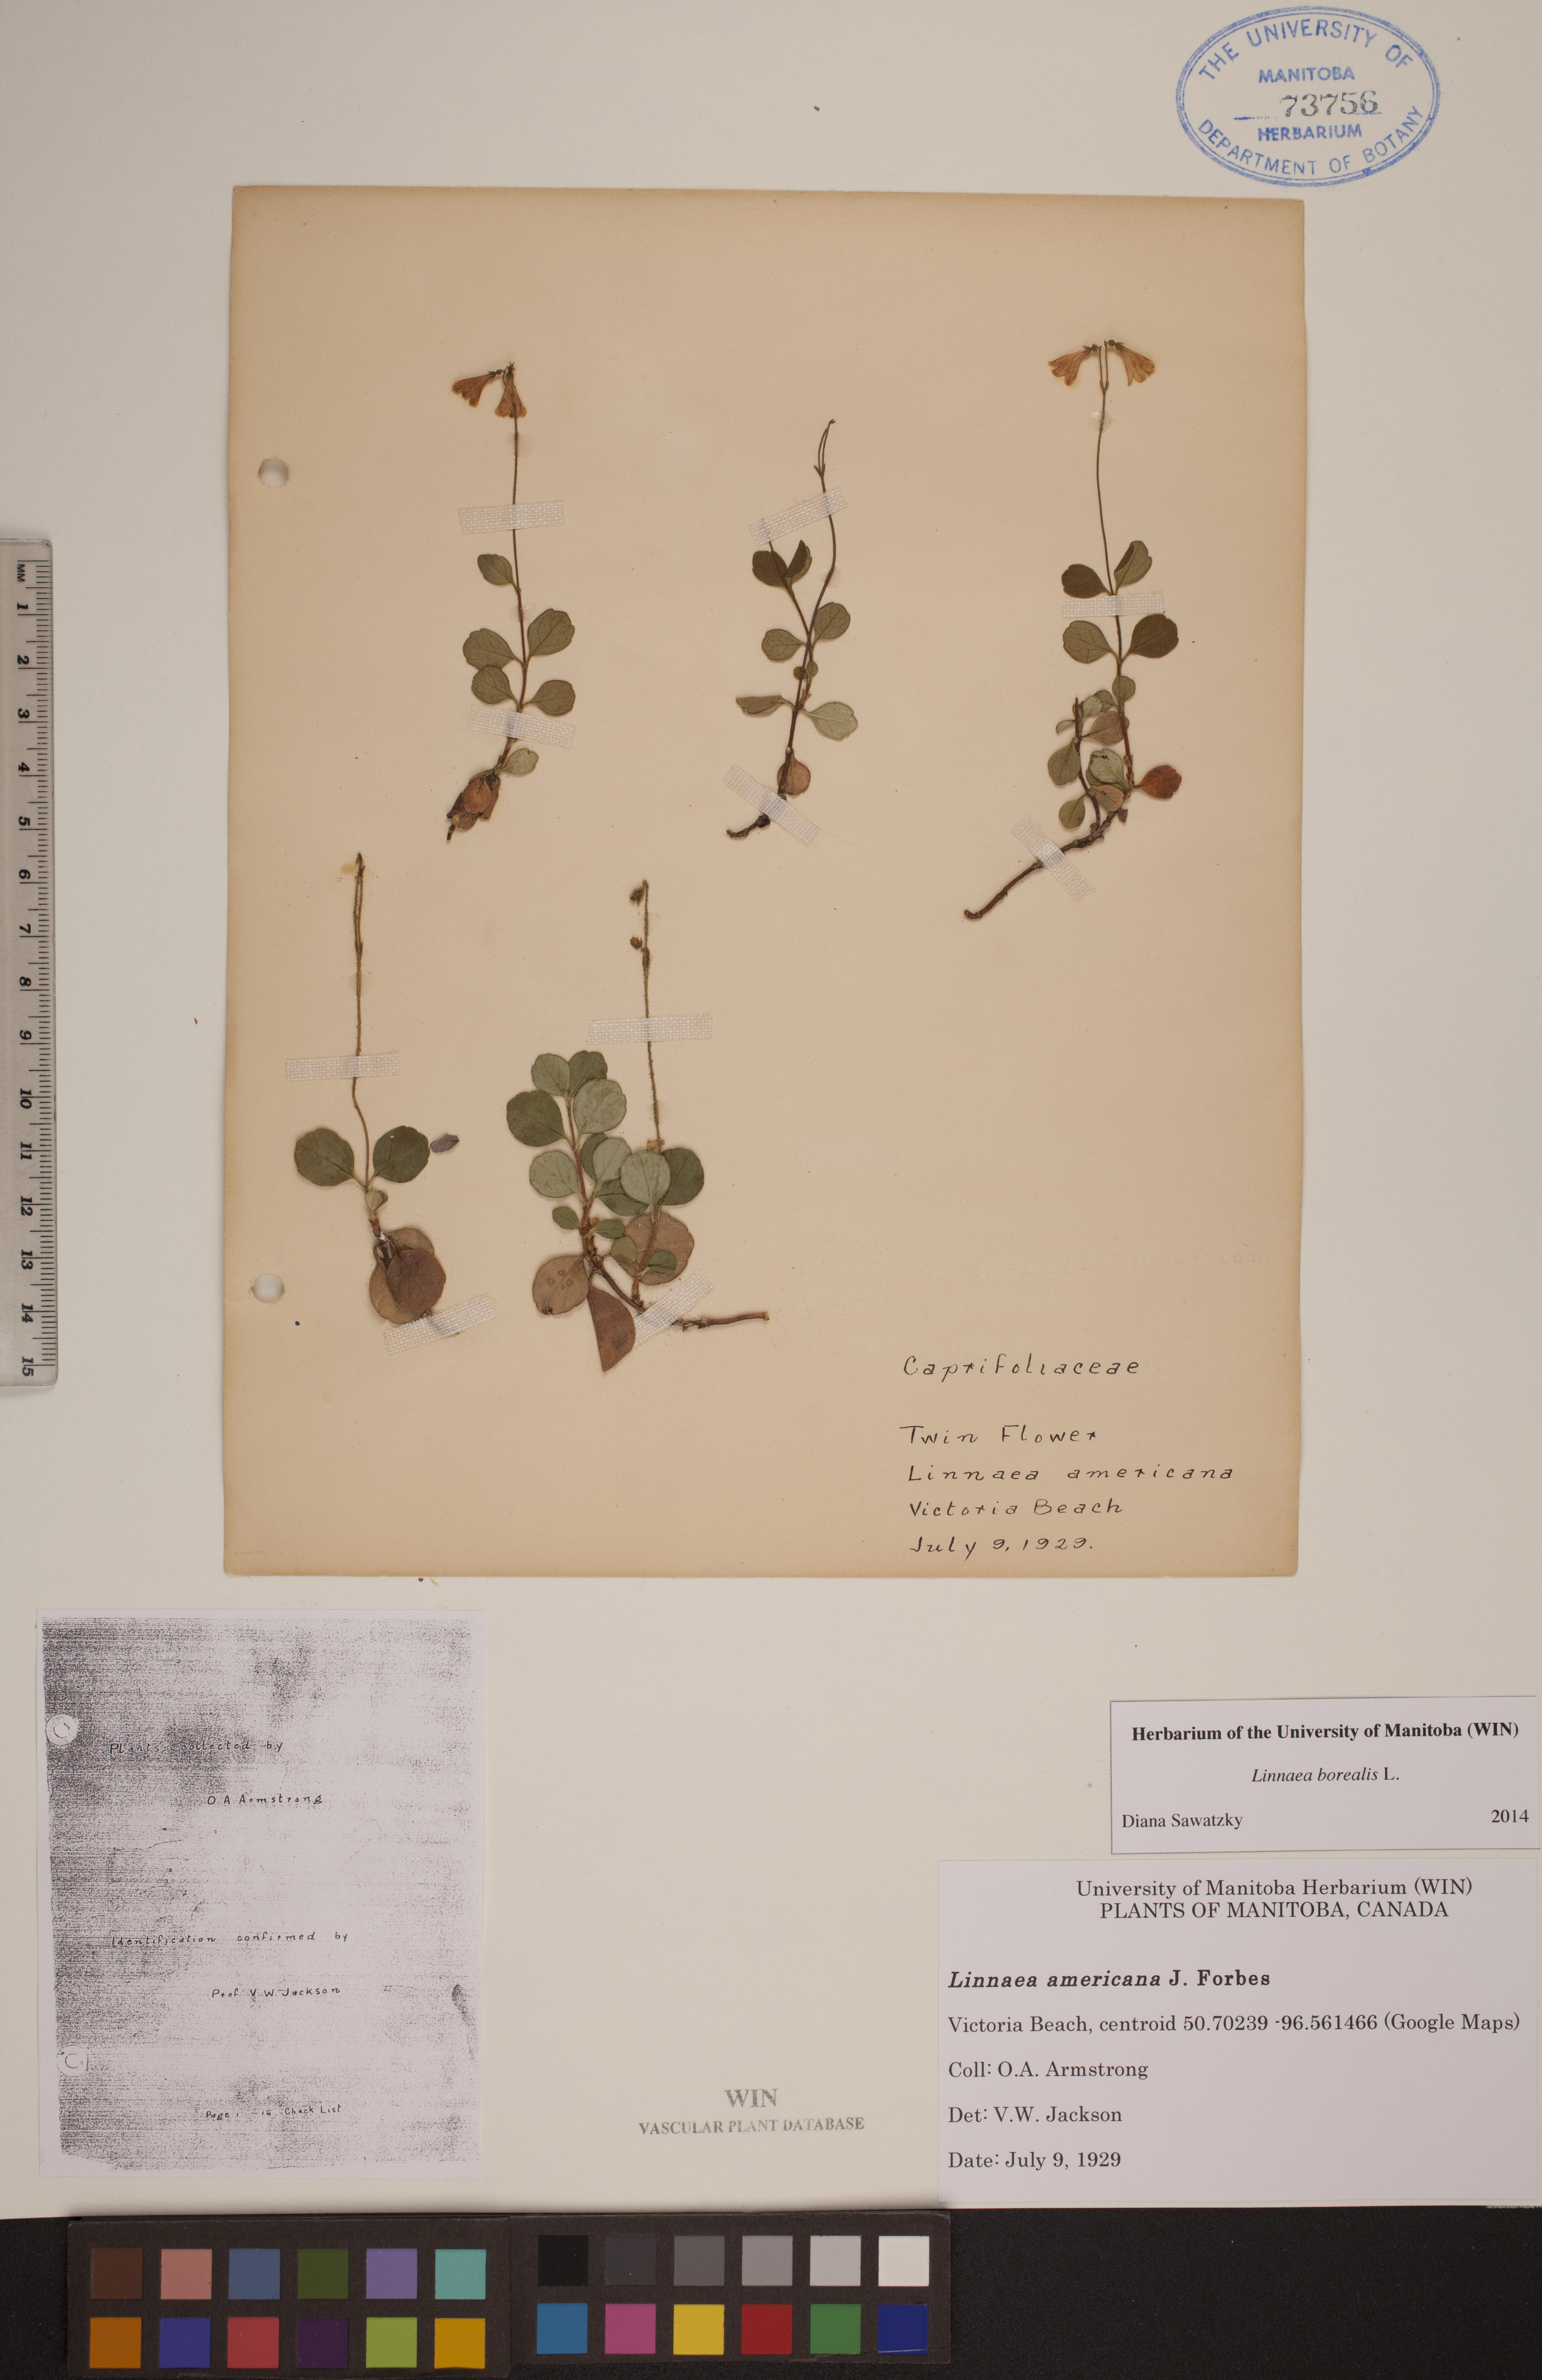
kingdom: Plantae
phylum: Tracheophyta
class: Magnoliopsida
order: Dipsacales
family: Caprifoliaceae
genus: Linnaea
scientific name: Linnaea borealis
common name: Twinflower
